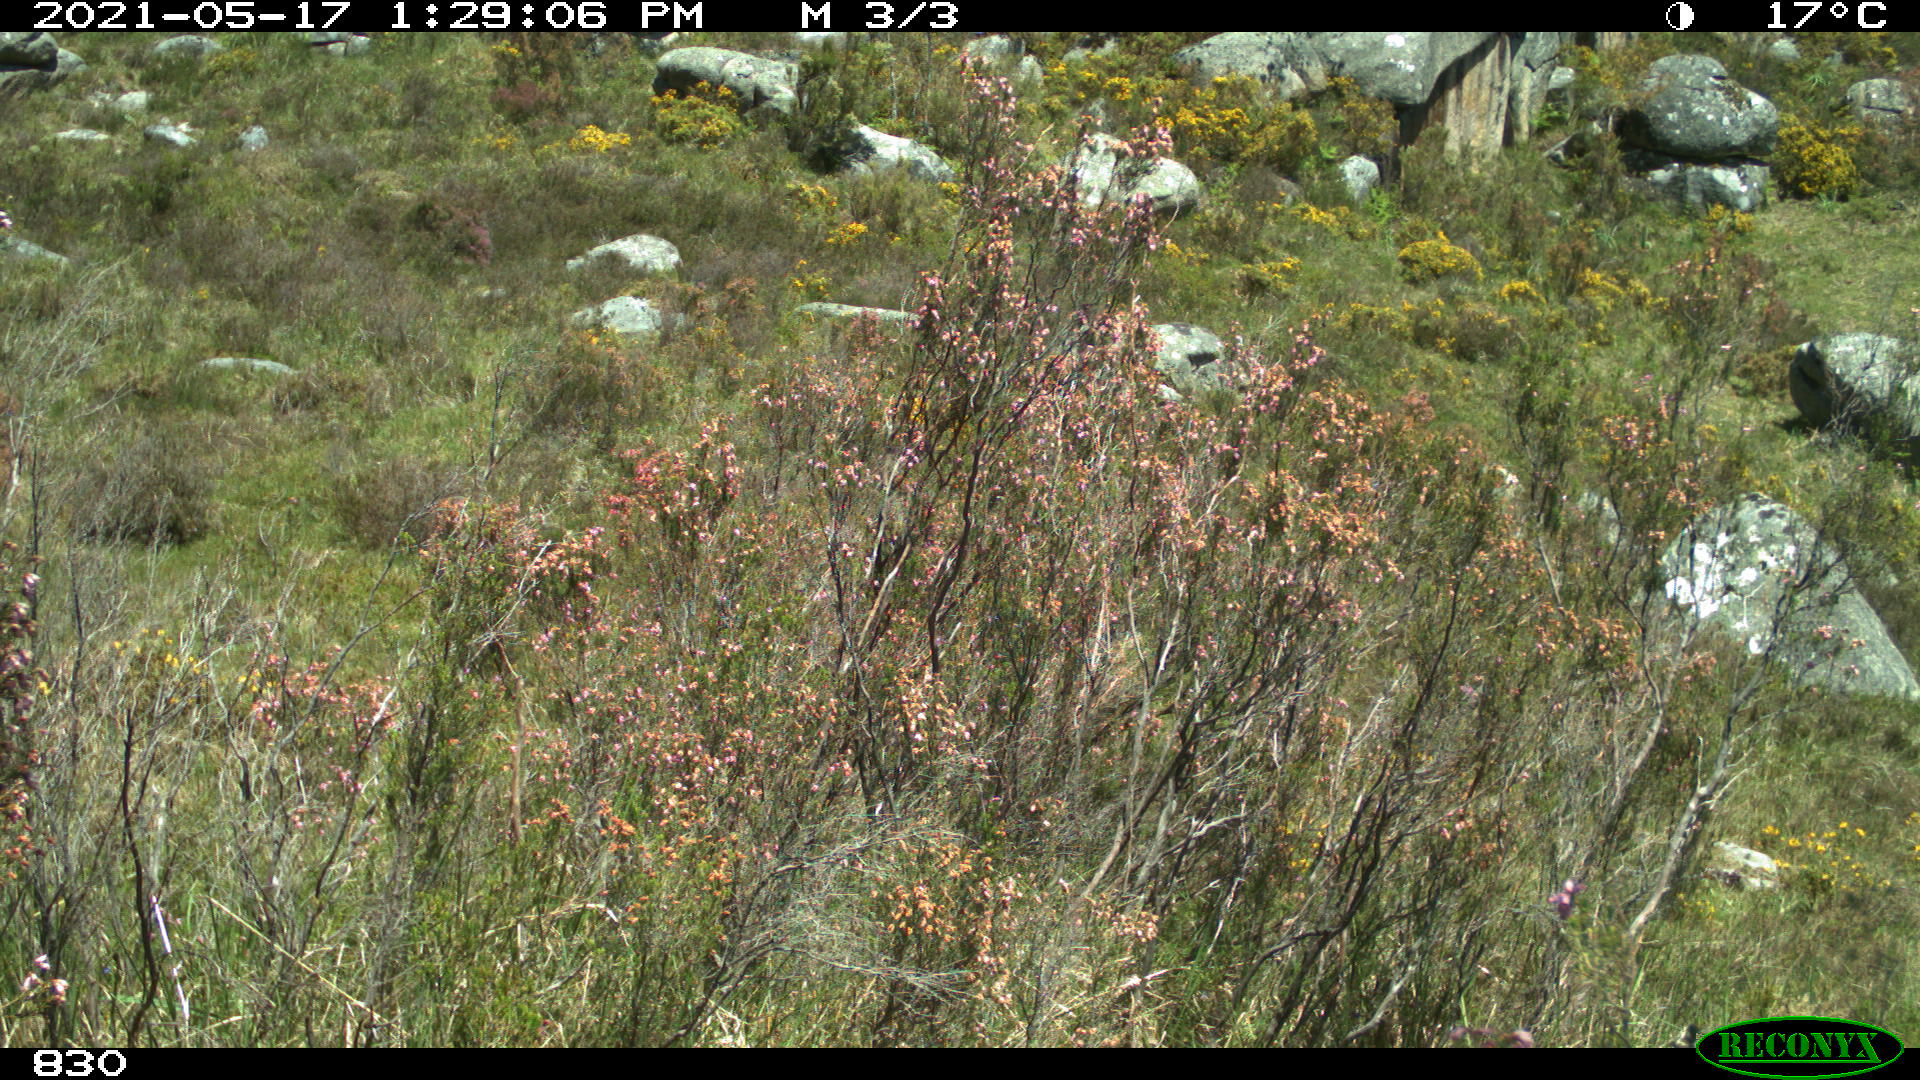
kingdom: Animalia
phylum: Chordata
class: Mammalia
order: Artiodactyla
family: Bovidae
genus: Bos
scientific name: Bos taurus
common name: Domesticated cattle
